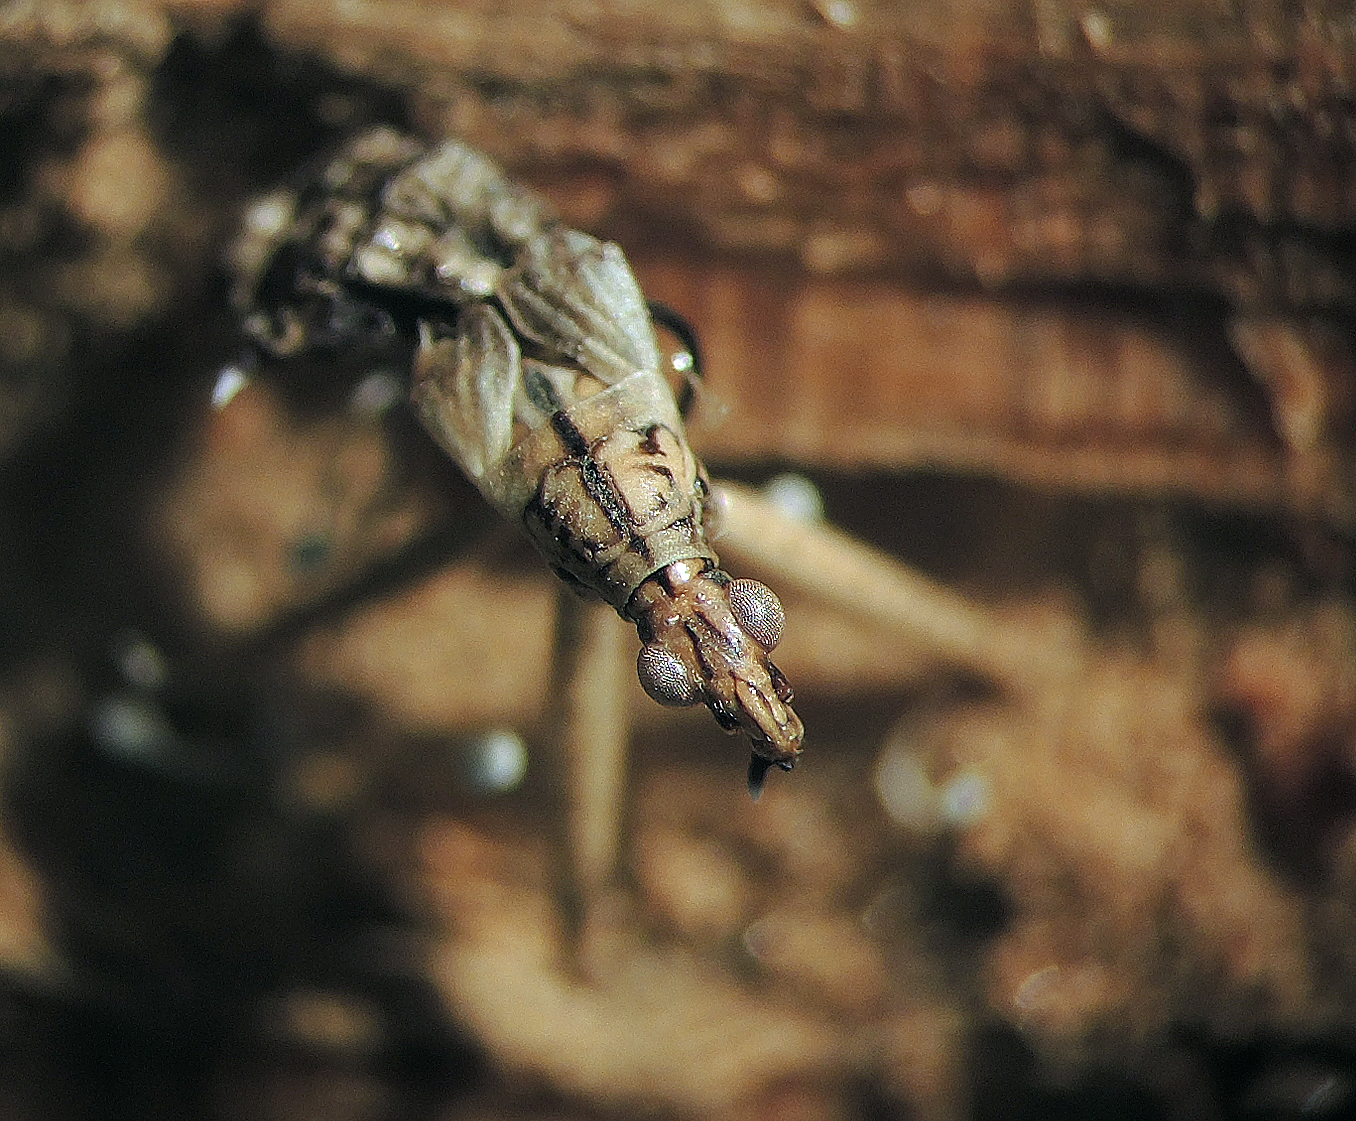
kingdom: Fungi
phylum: Ascomycota
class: Sordariomycetes
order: Hypocreales
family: Ophiocordycipitaceae
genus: Polycephalomyces
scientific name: Polycephalomyces
